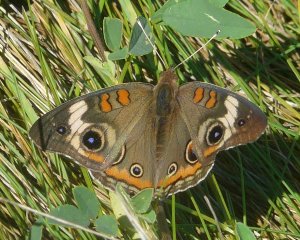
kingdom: Animalia
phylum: Arthropoda
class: Insecta
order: Lepidoptera
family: Nymphalidae
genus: Junonia
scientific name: Junonia coenia
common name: Common Buckeye
